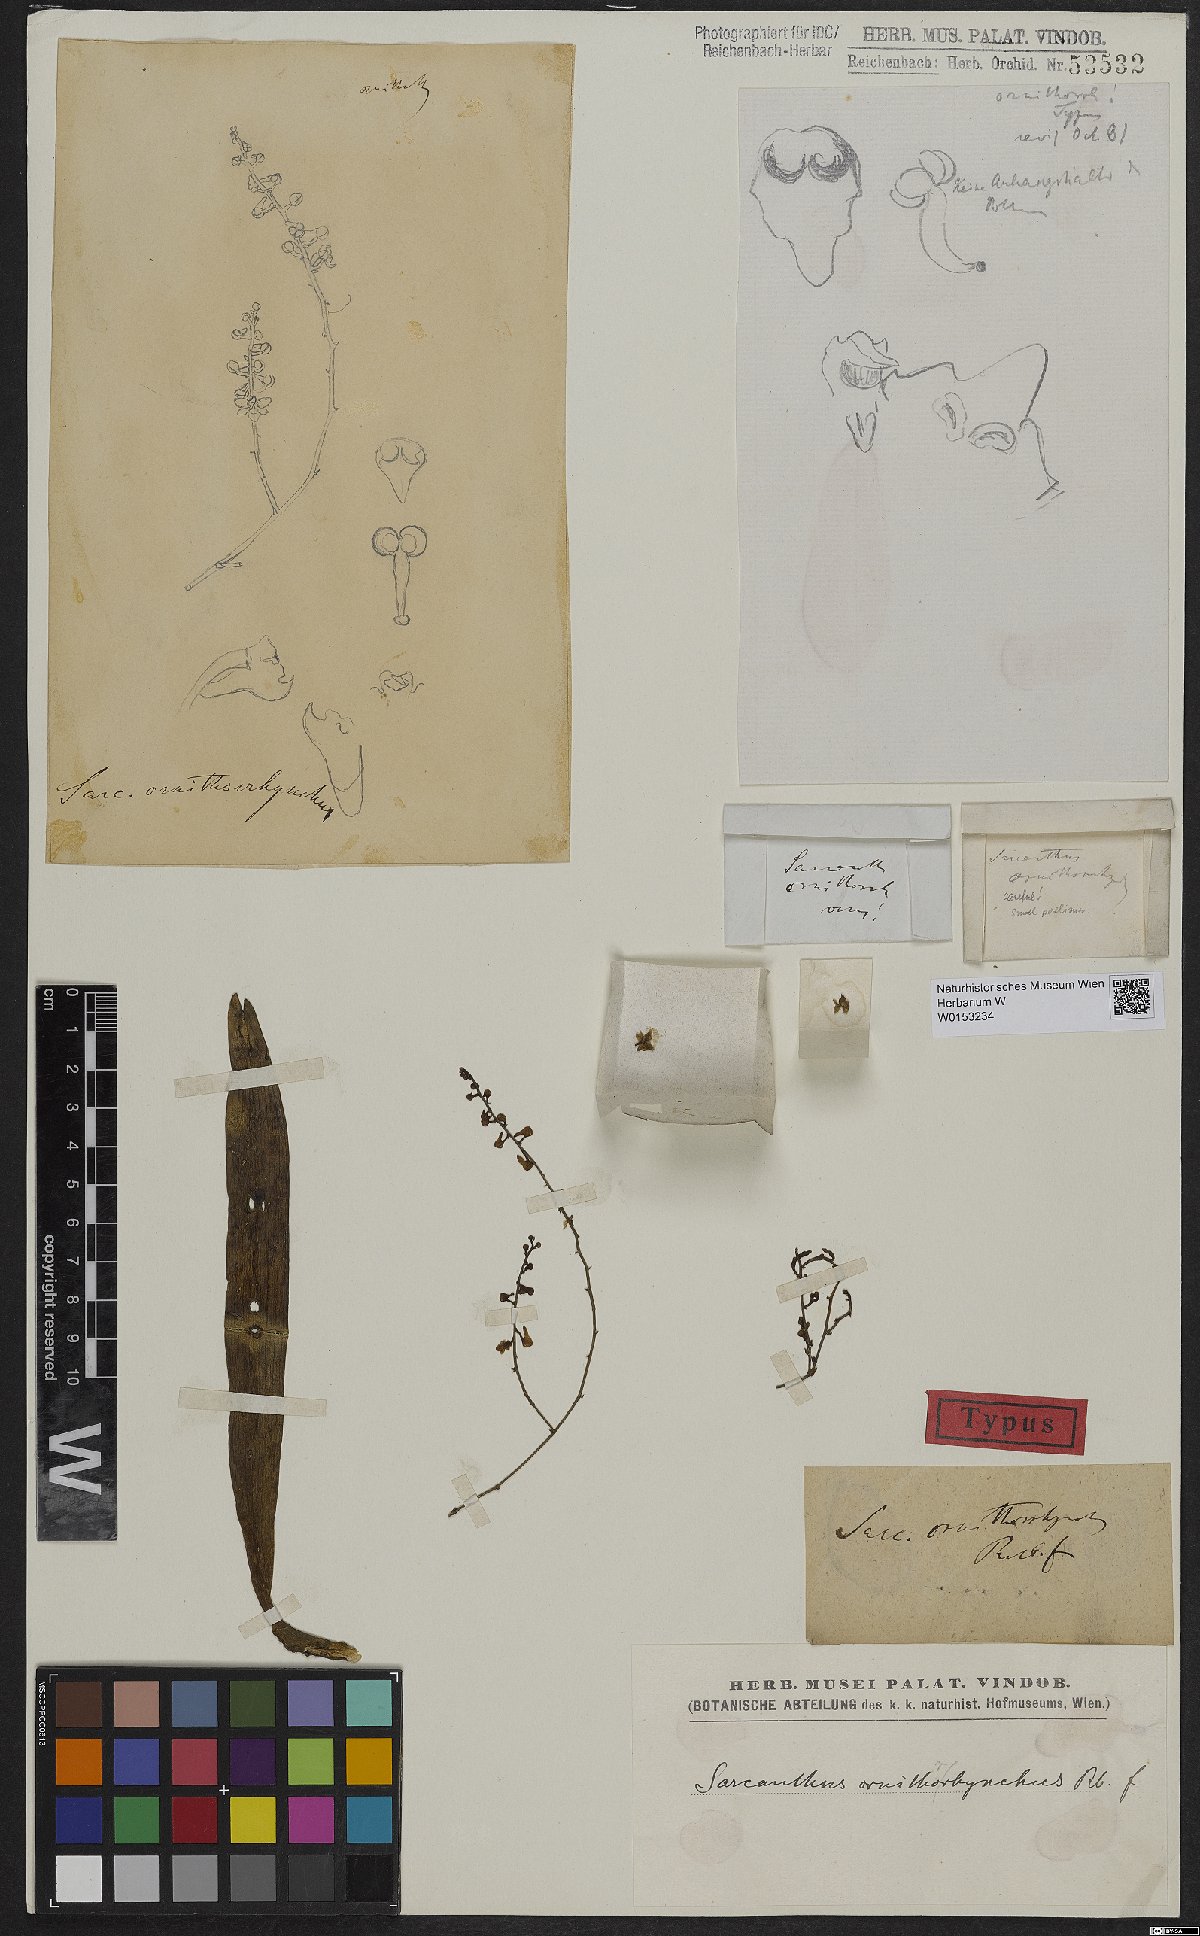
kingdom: Plantae
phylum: Tracheophyta
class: Liliopsida
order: Asparagales
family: Orchidaceae
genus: Robiquetia
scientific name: Robiquetia rosea
